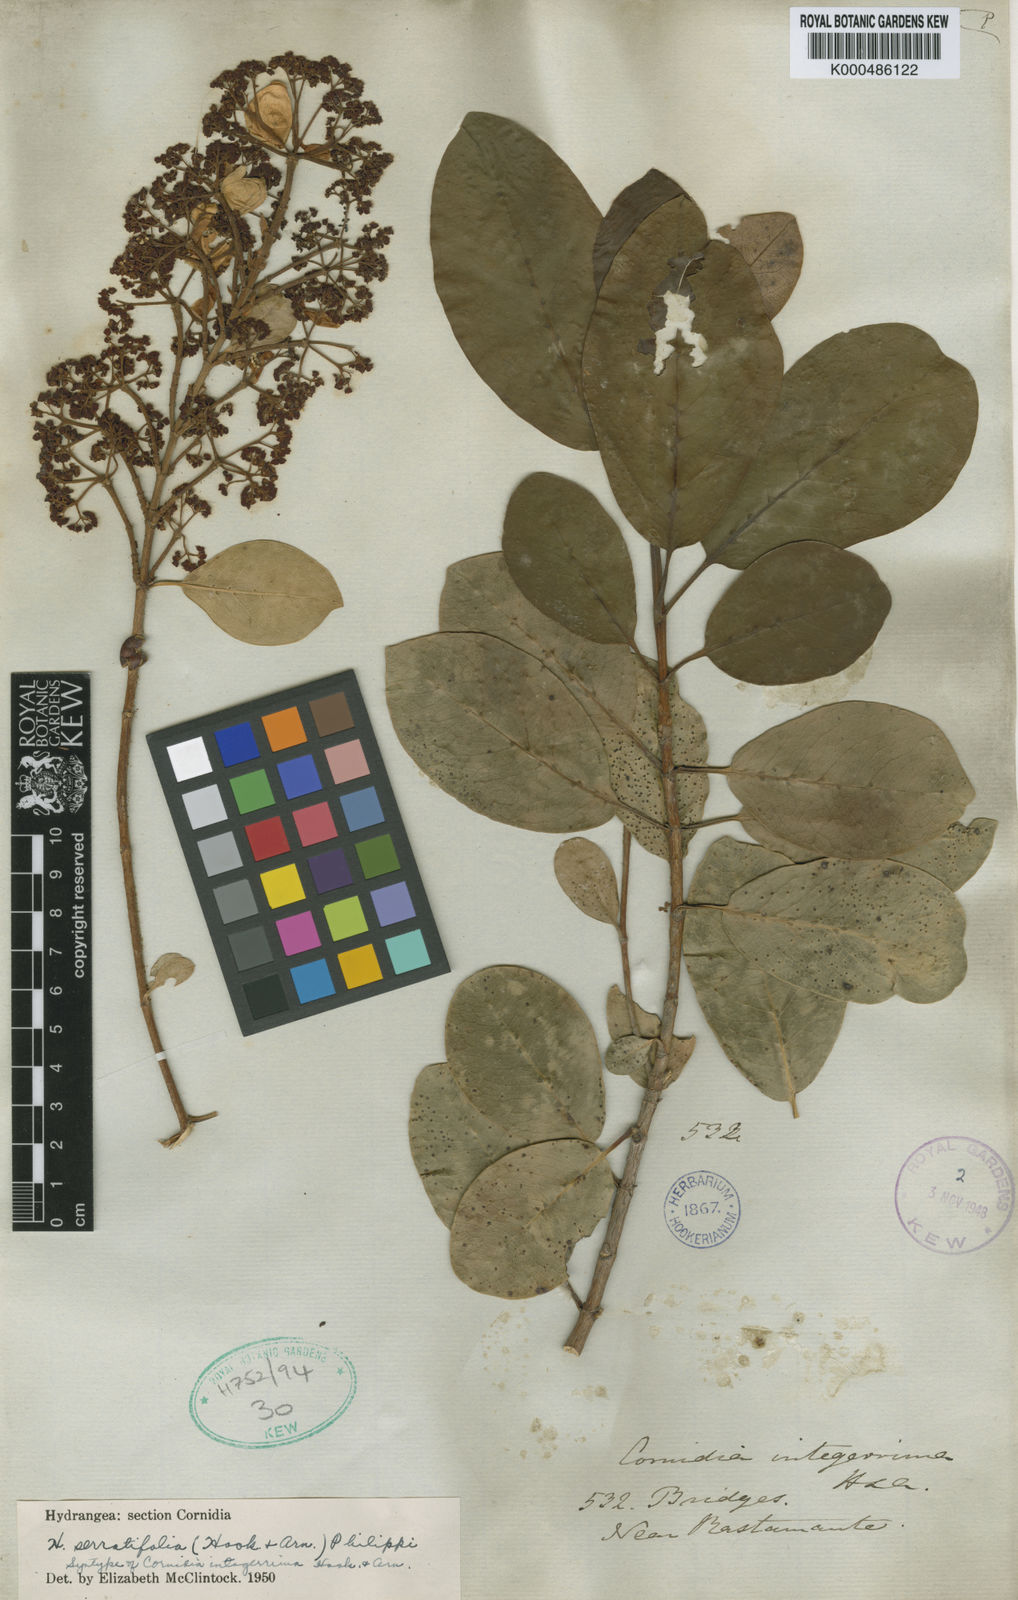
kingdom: Plantae
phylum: Tracheophyta
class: Magnoliopsida
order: Cornales
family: Hydrangeaceae
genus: Hydrangea
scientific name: Hydrangea serratifolia
